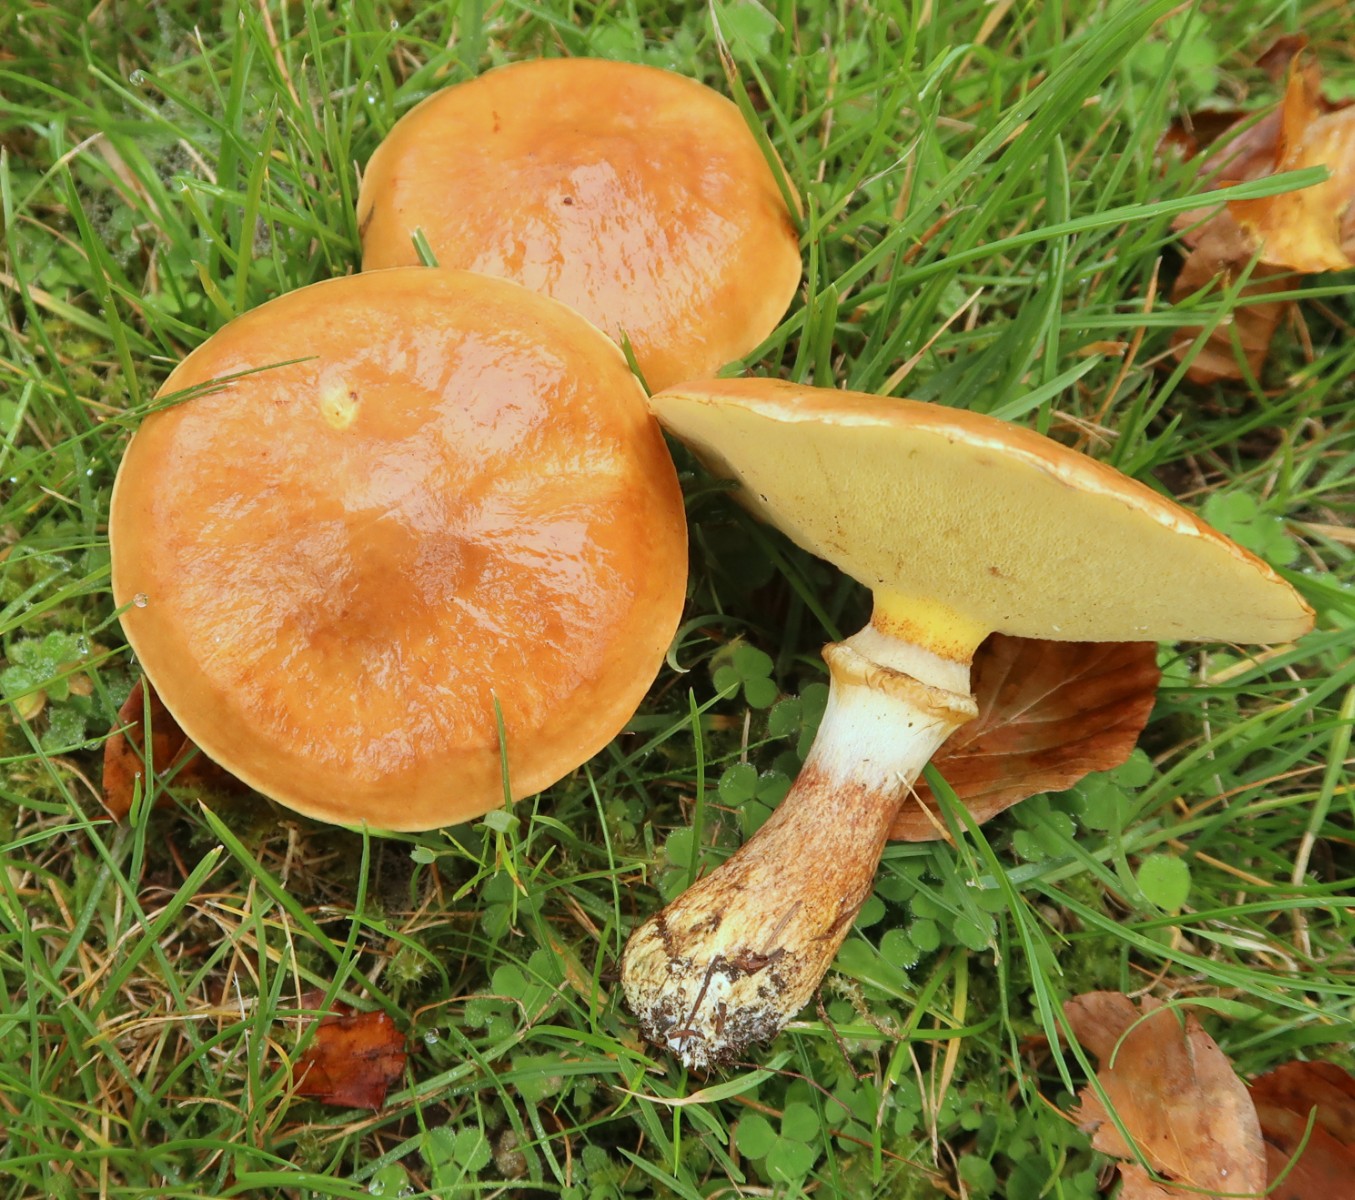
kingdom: Fungi
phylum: Basidiomycota
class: Agaricomycetes
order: Boletales
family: Suillaceae
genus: Suillus
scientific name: Suillus grevillei
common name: lærke-slimrørhat
